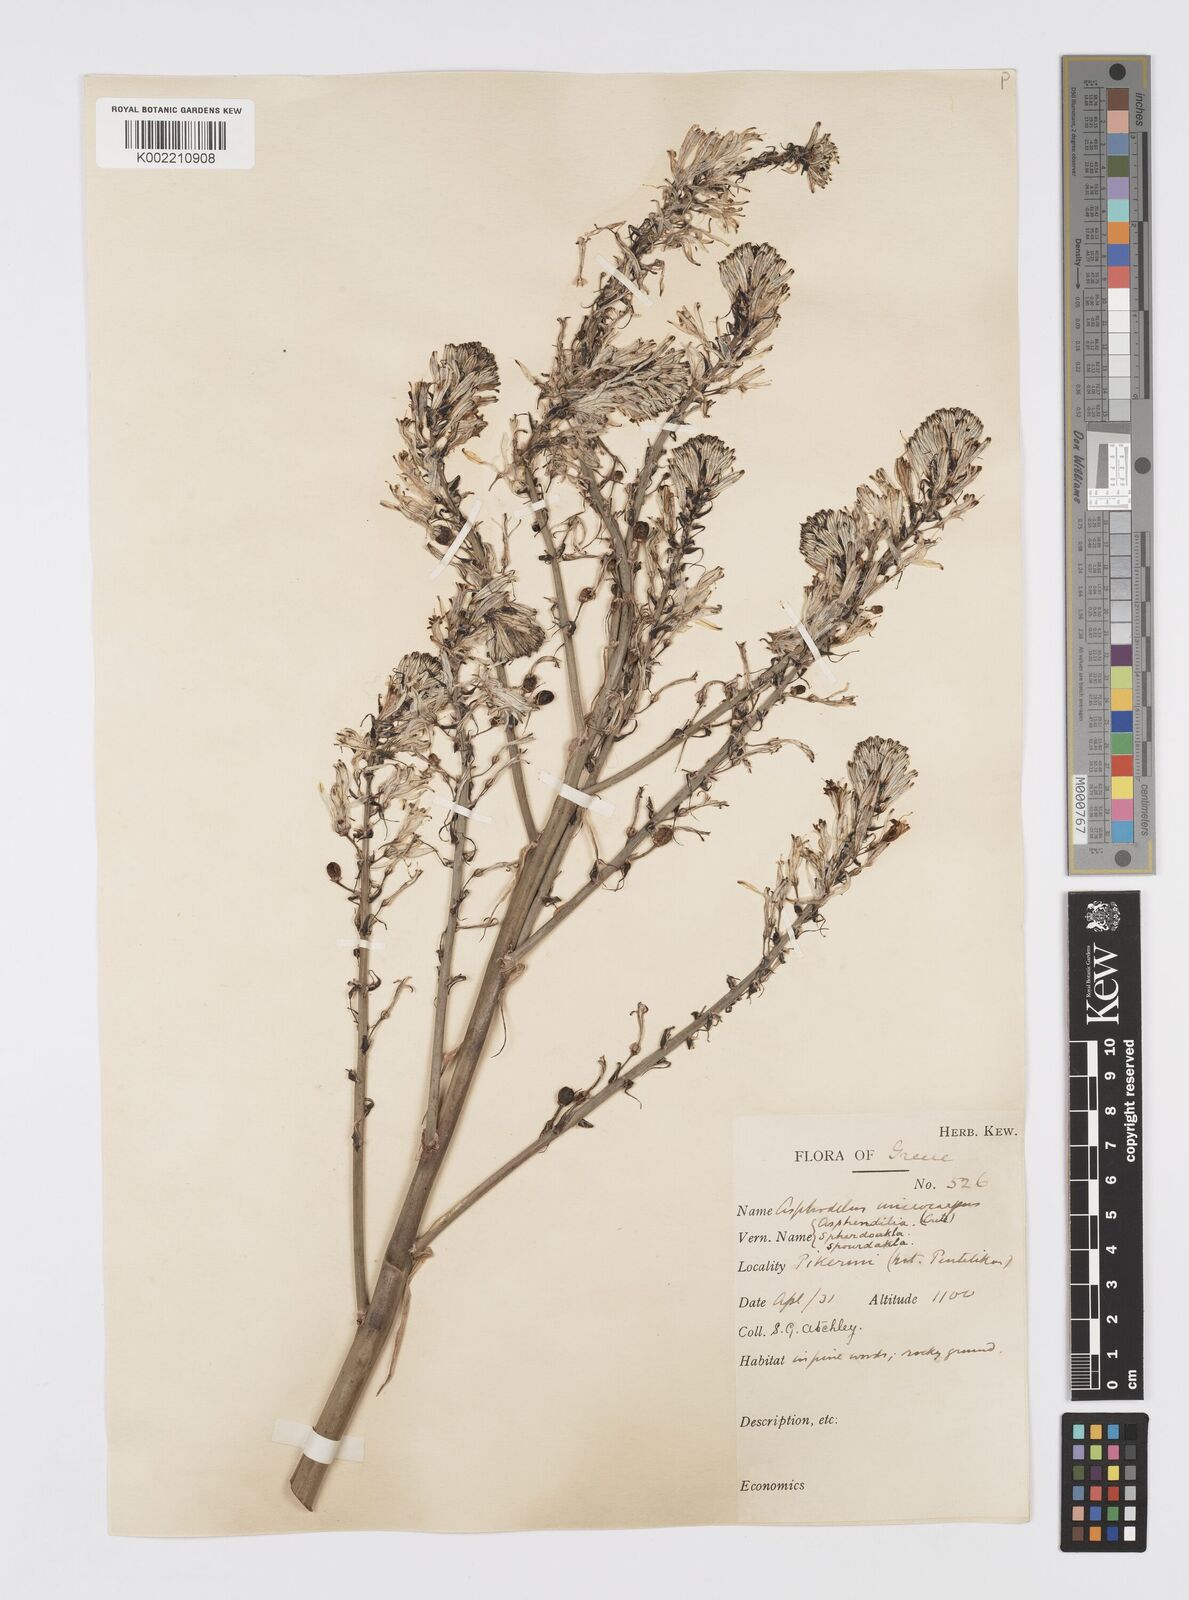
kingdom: Plantae
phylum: Tracheophyta
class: Liliopsida
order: Asparagales
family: Asphodelaceae
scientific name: Asphodelaceae
